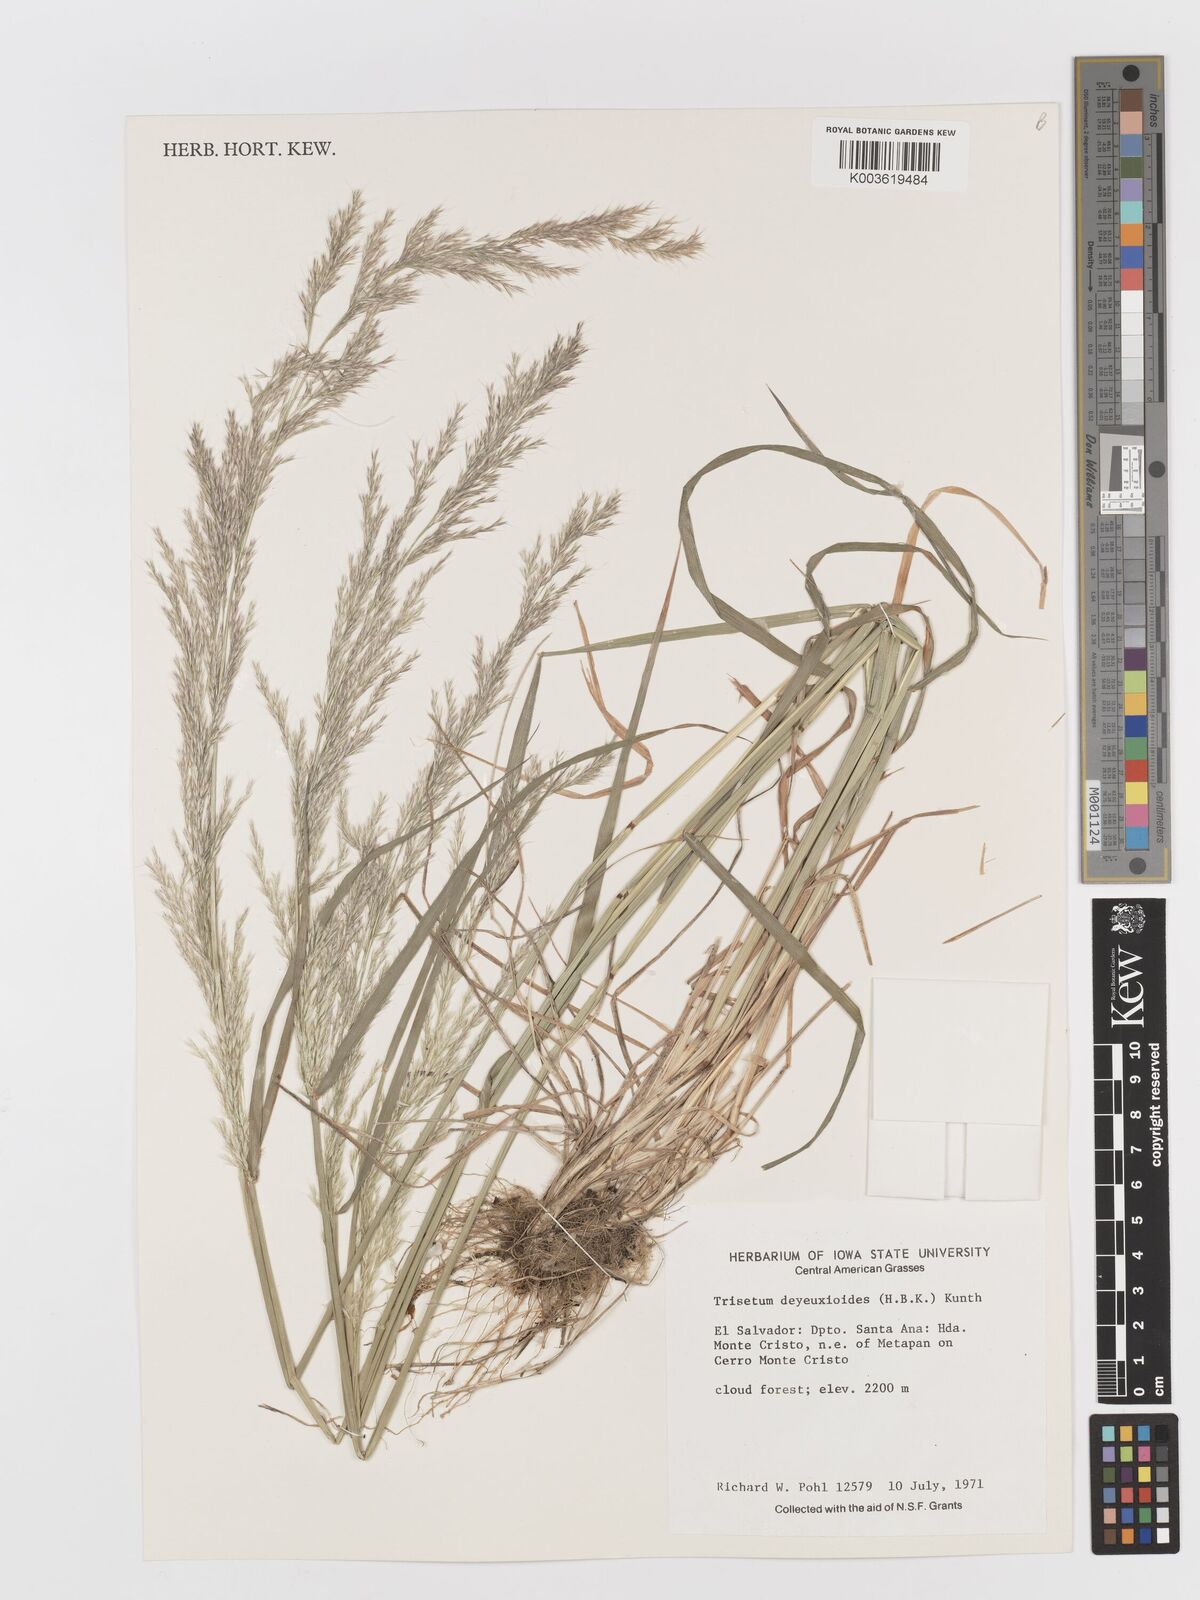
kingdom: Plantae
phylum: Tracheophyta
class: Liliopsida
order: Poales
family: Poaceae
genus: Peyritschia
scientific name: Peyritschia deyeuxioides
